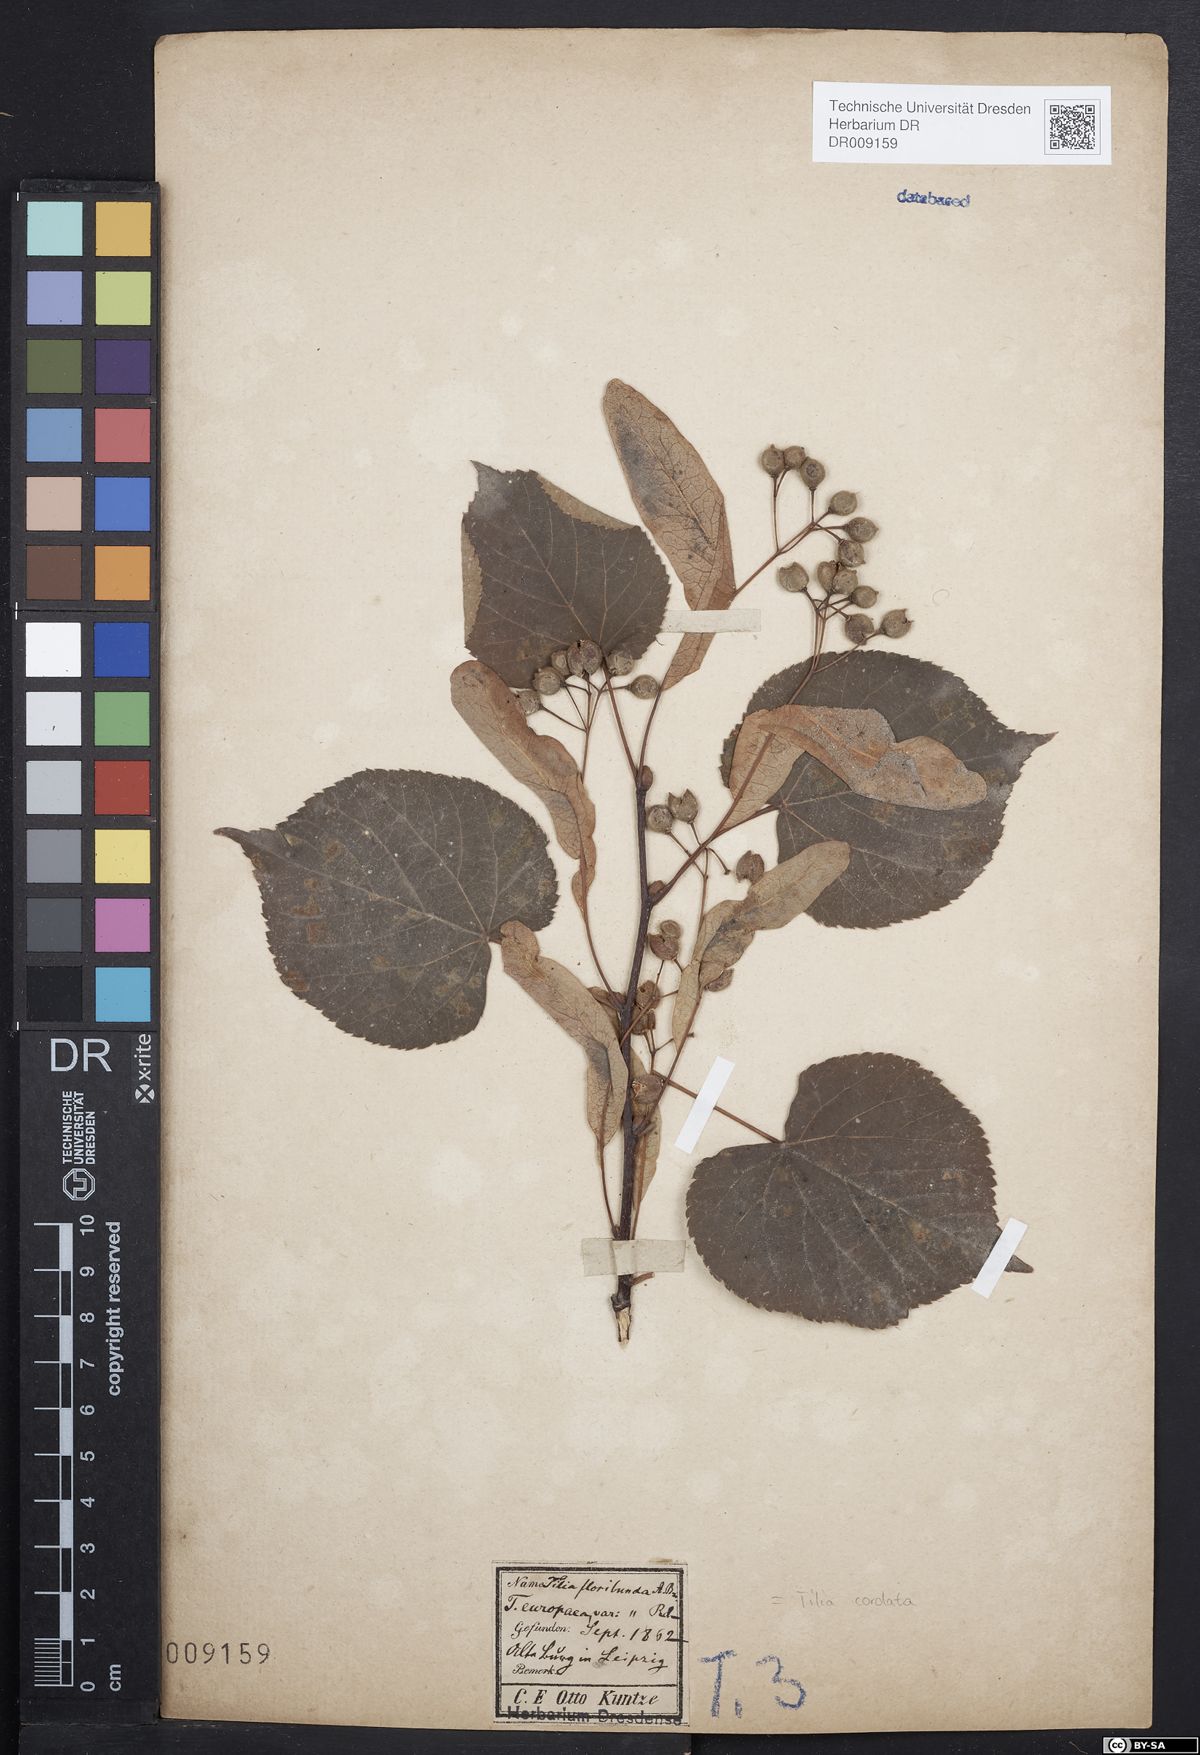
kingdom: Plantae
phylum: Tracheophyta
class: Magnoliopsida
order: Malvales
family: Malvaceae
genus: Tilia
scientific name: Tilia cordata
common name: Small-leaved lime
